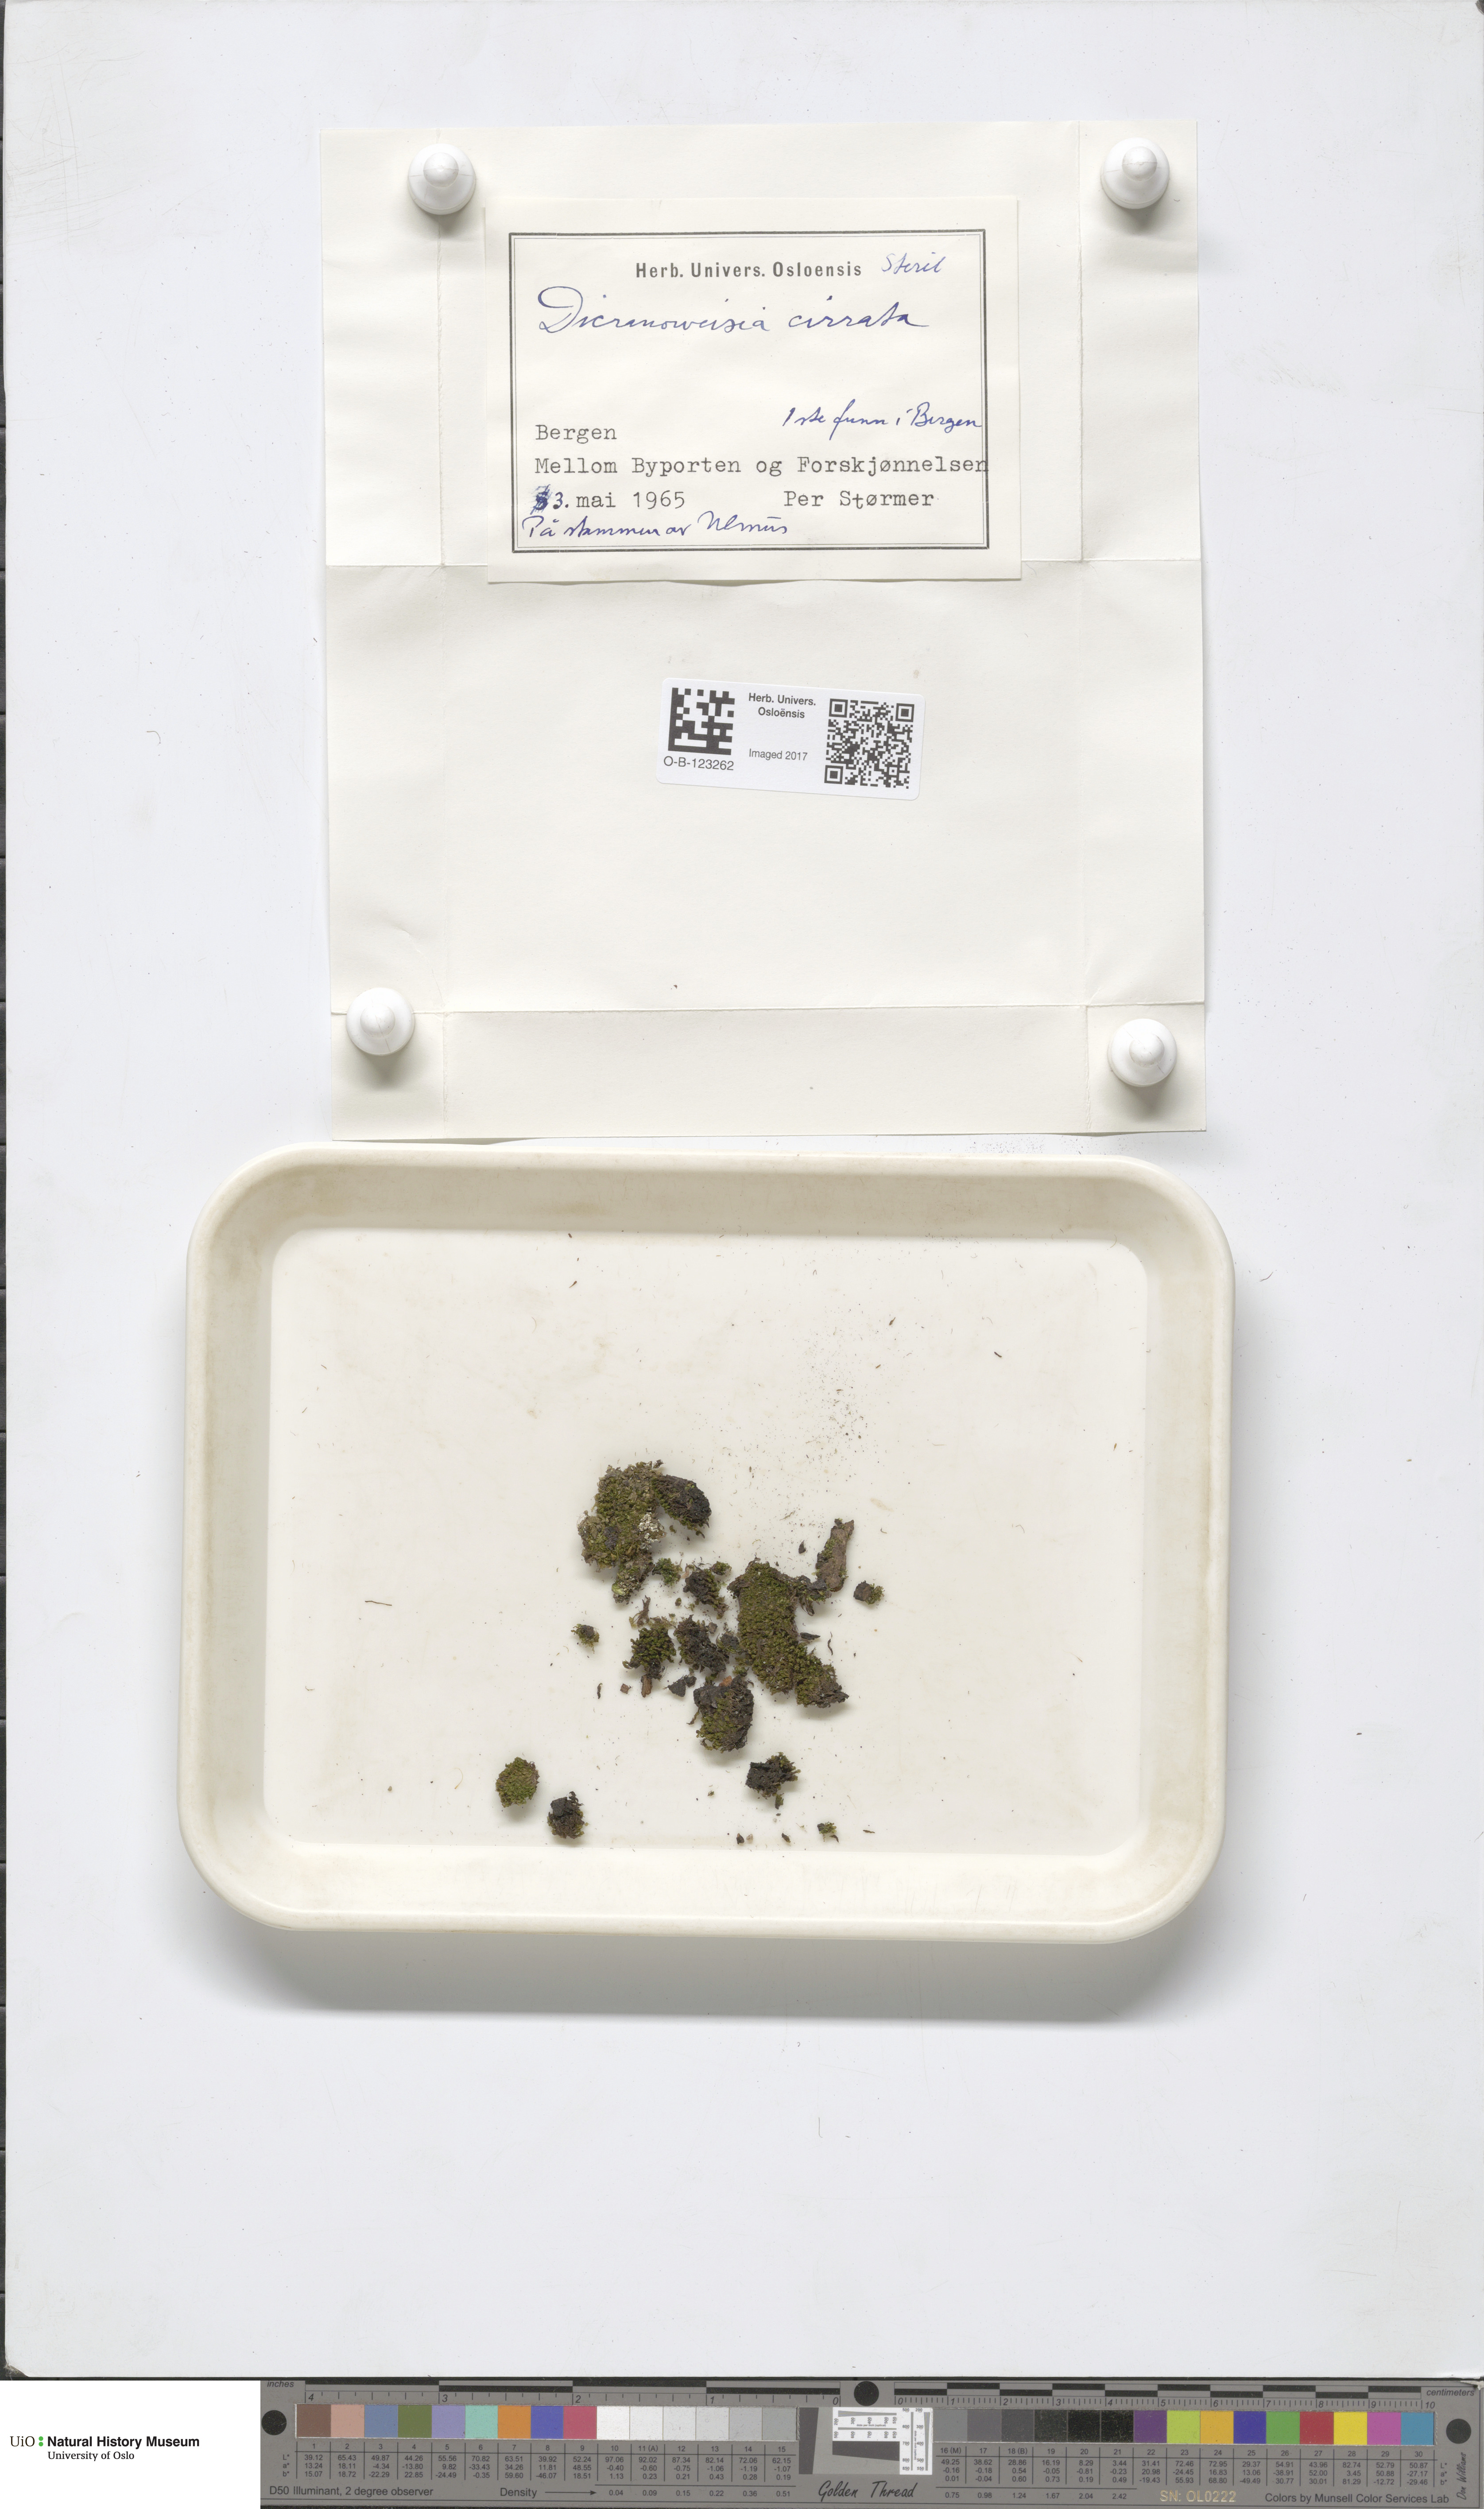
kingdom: Plantae
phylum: Bryophyta
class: Bryopsida
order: Dicranales
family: Rhabdoweisiaceae
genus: Dicranoweisia
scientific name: Dicranoweisia cirrata
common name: Common pincushion
